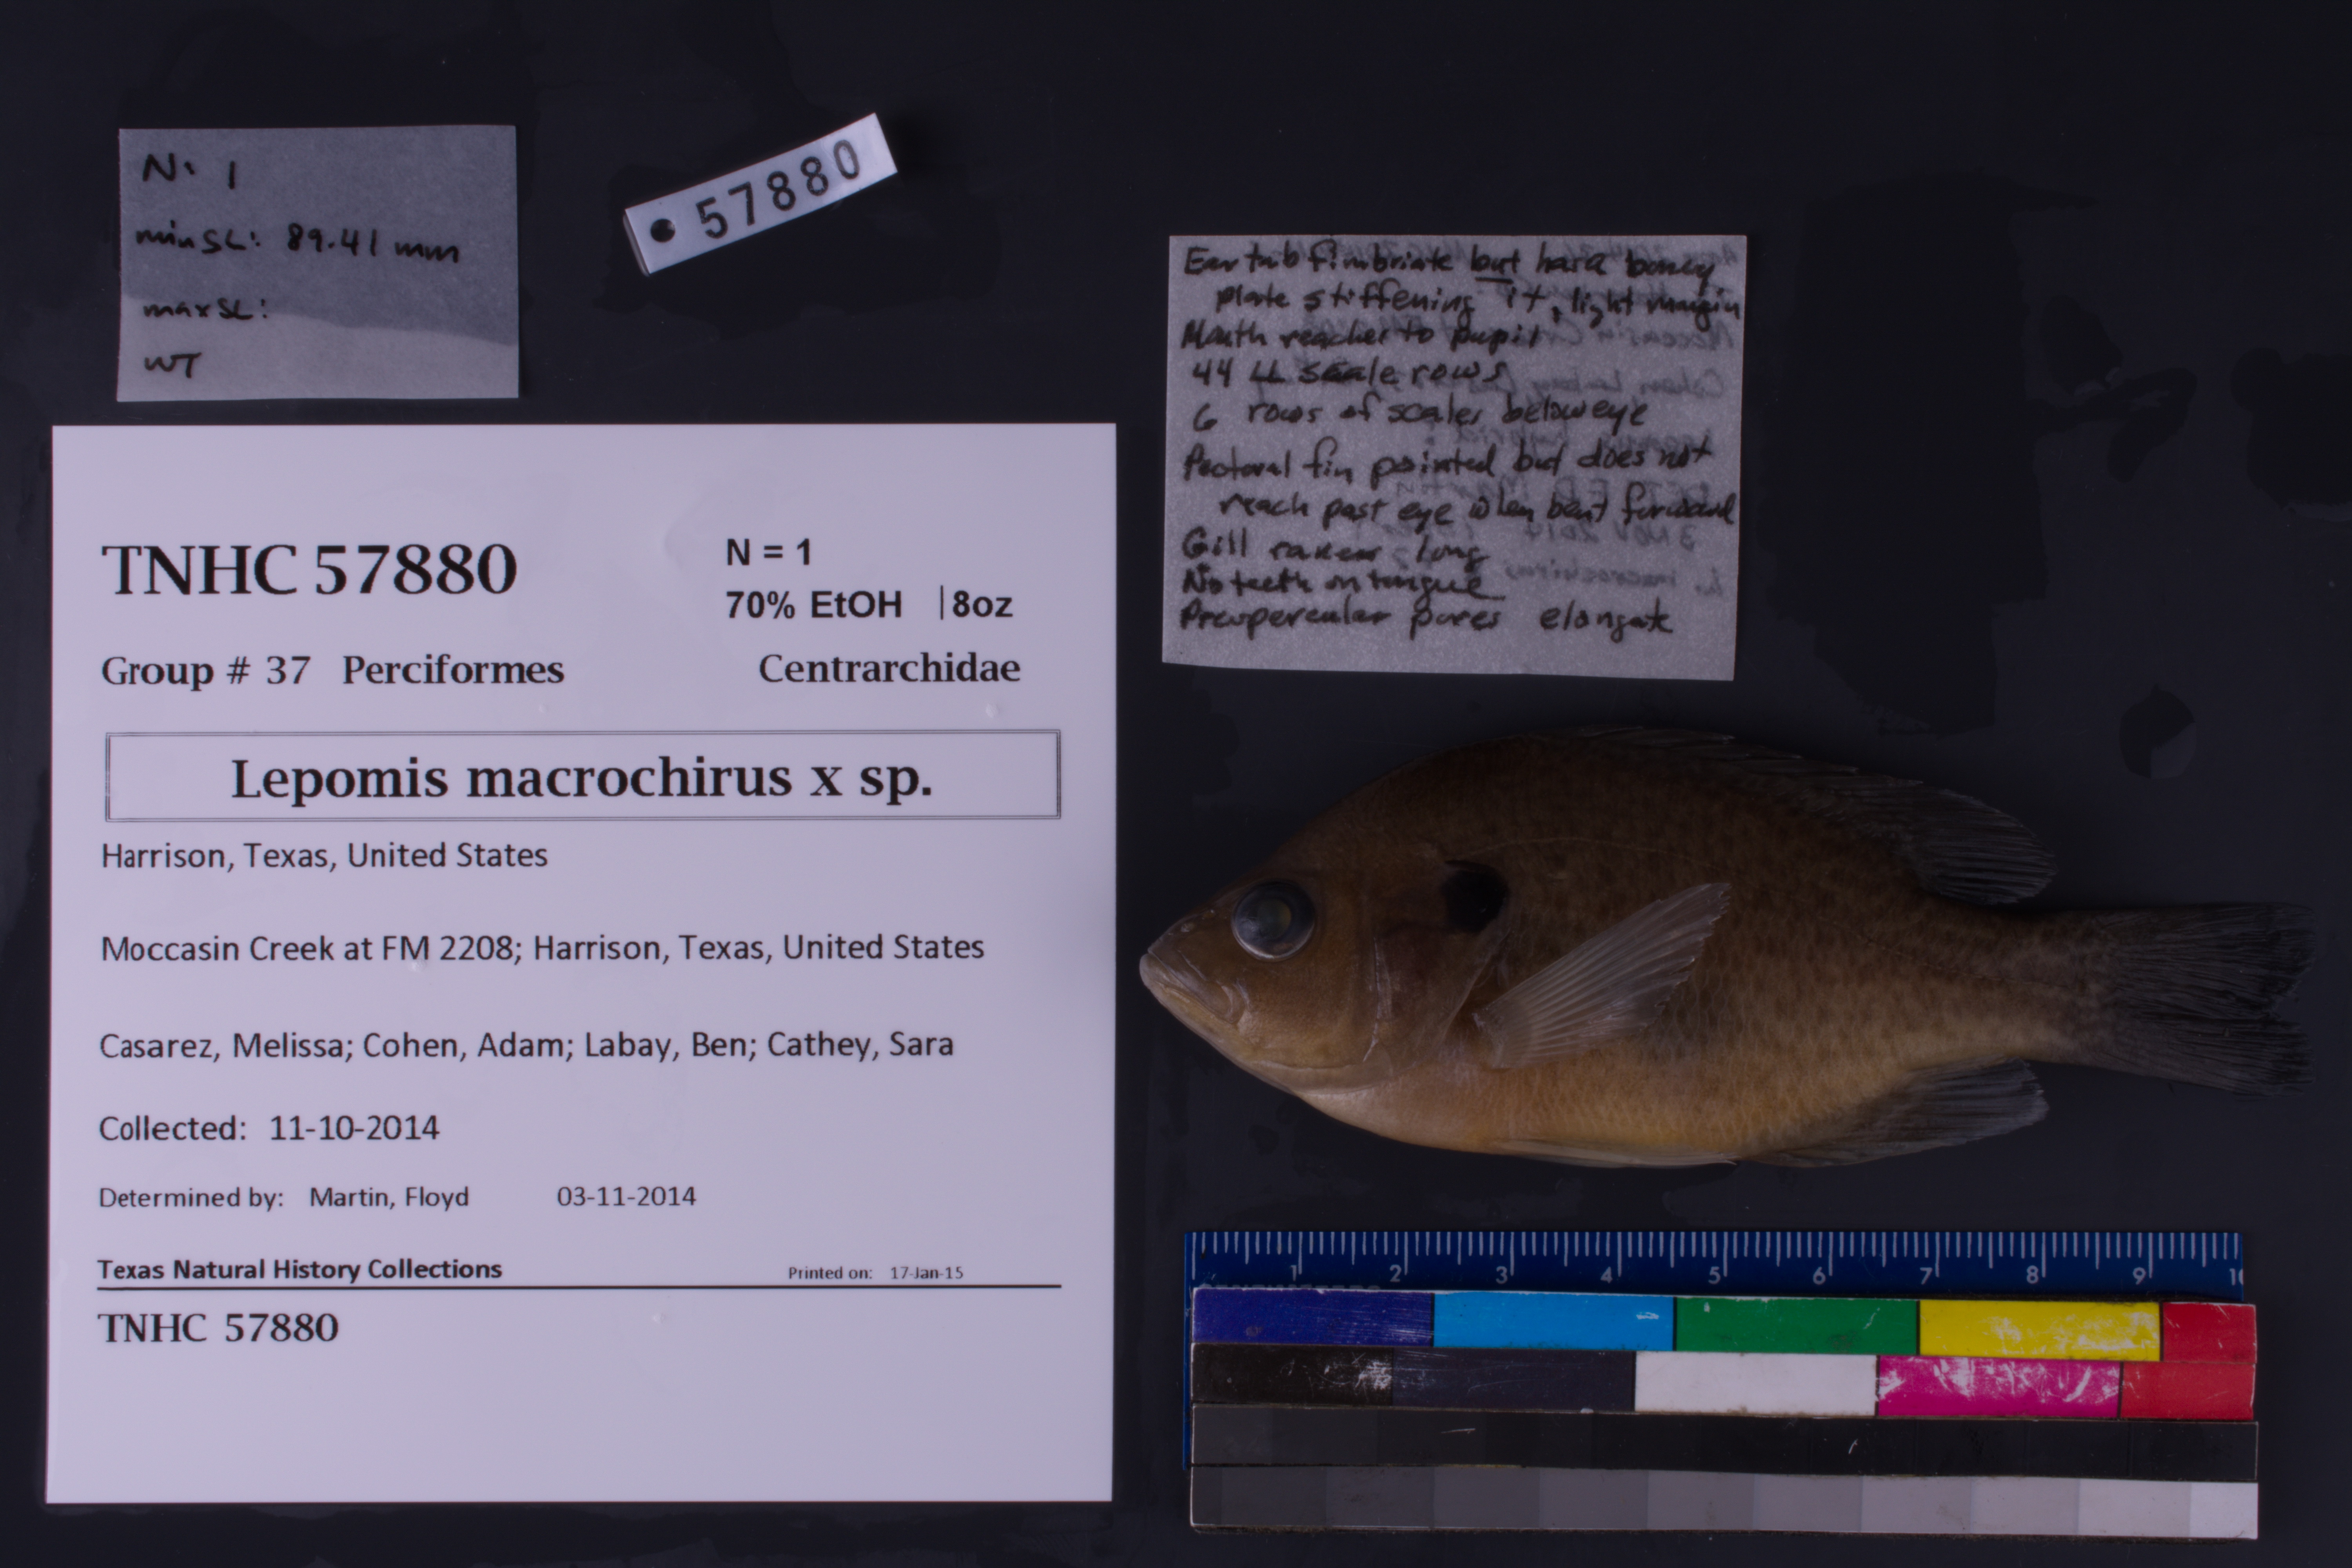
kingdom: Animalia
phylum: Chordata
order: Perciformes
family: Centrarchidae
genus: Lepomis
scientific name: Lepomis
